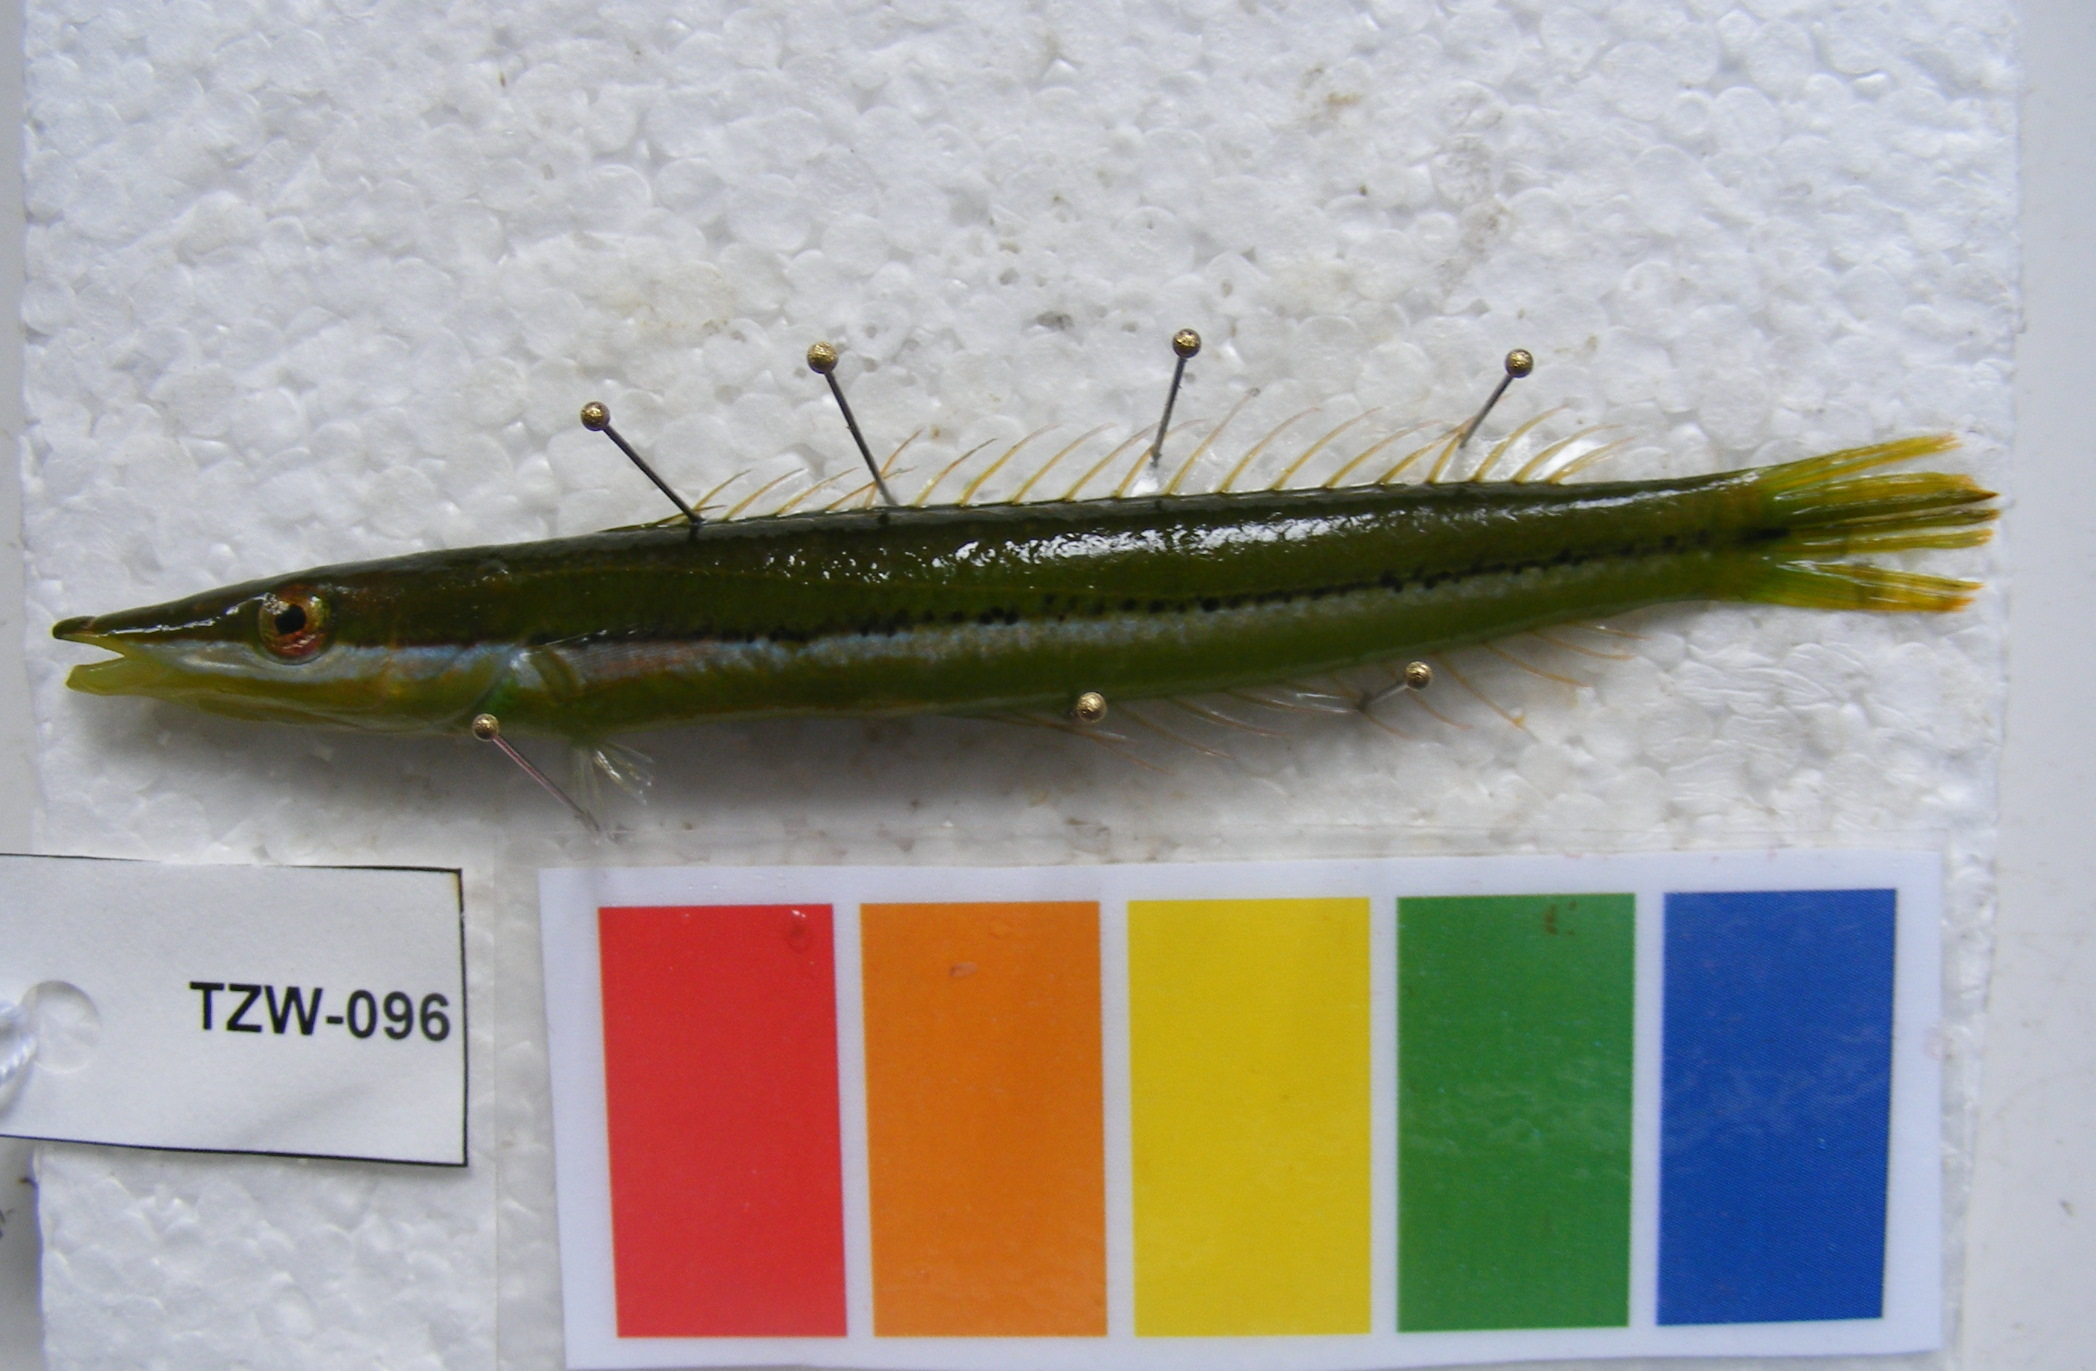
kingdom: Animalia
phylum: Chordata
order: Perciformes
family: Labridae
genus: Cheilio
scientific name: Cheilio inermis
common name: Cigar wrasse
